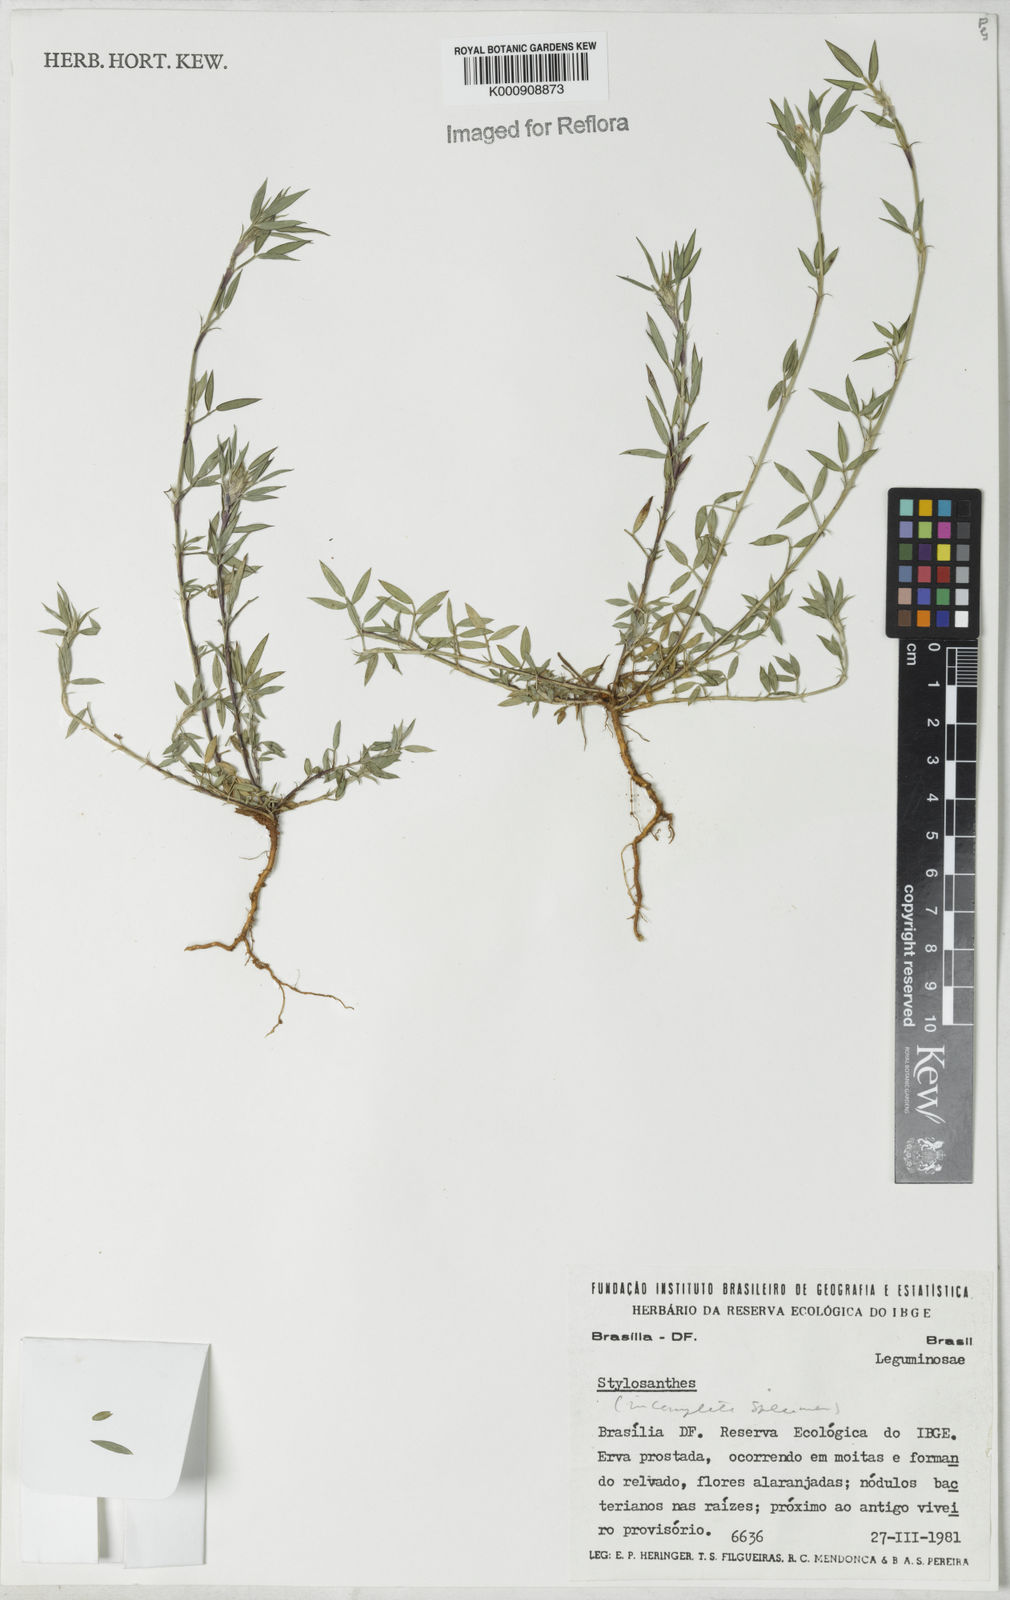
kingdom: Plantae
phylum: Tracheophyta
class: Magnoliopsida
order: Fabales
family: Fabaceae
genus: Stylosanthes
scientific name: Stylosanthes
